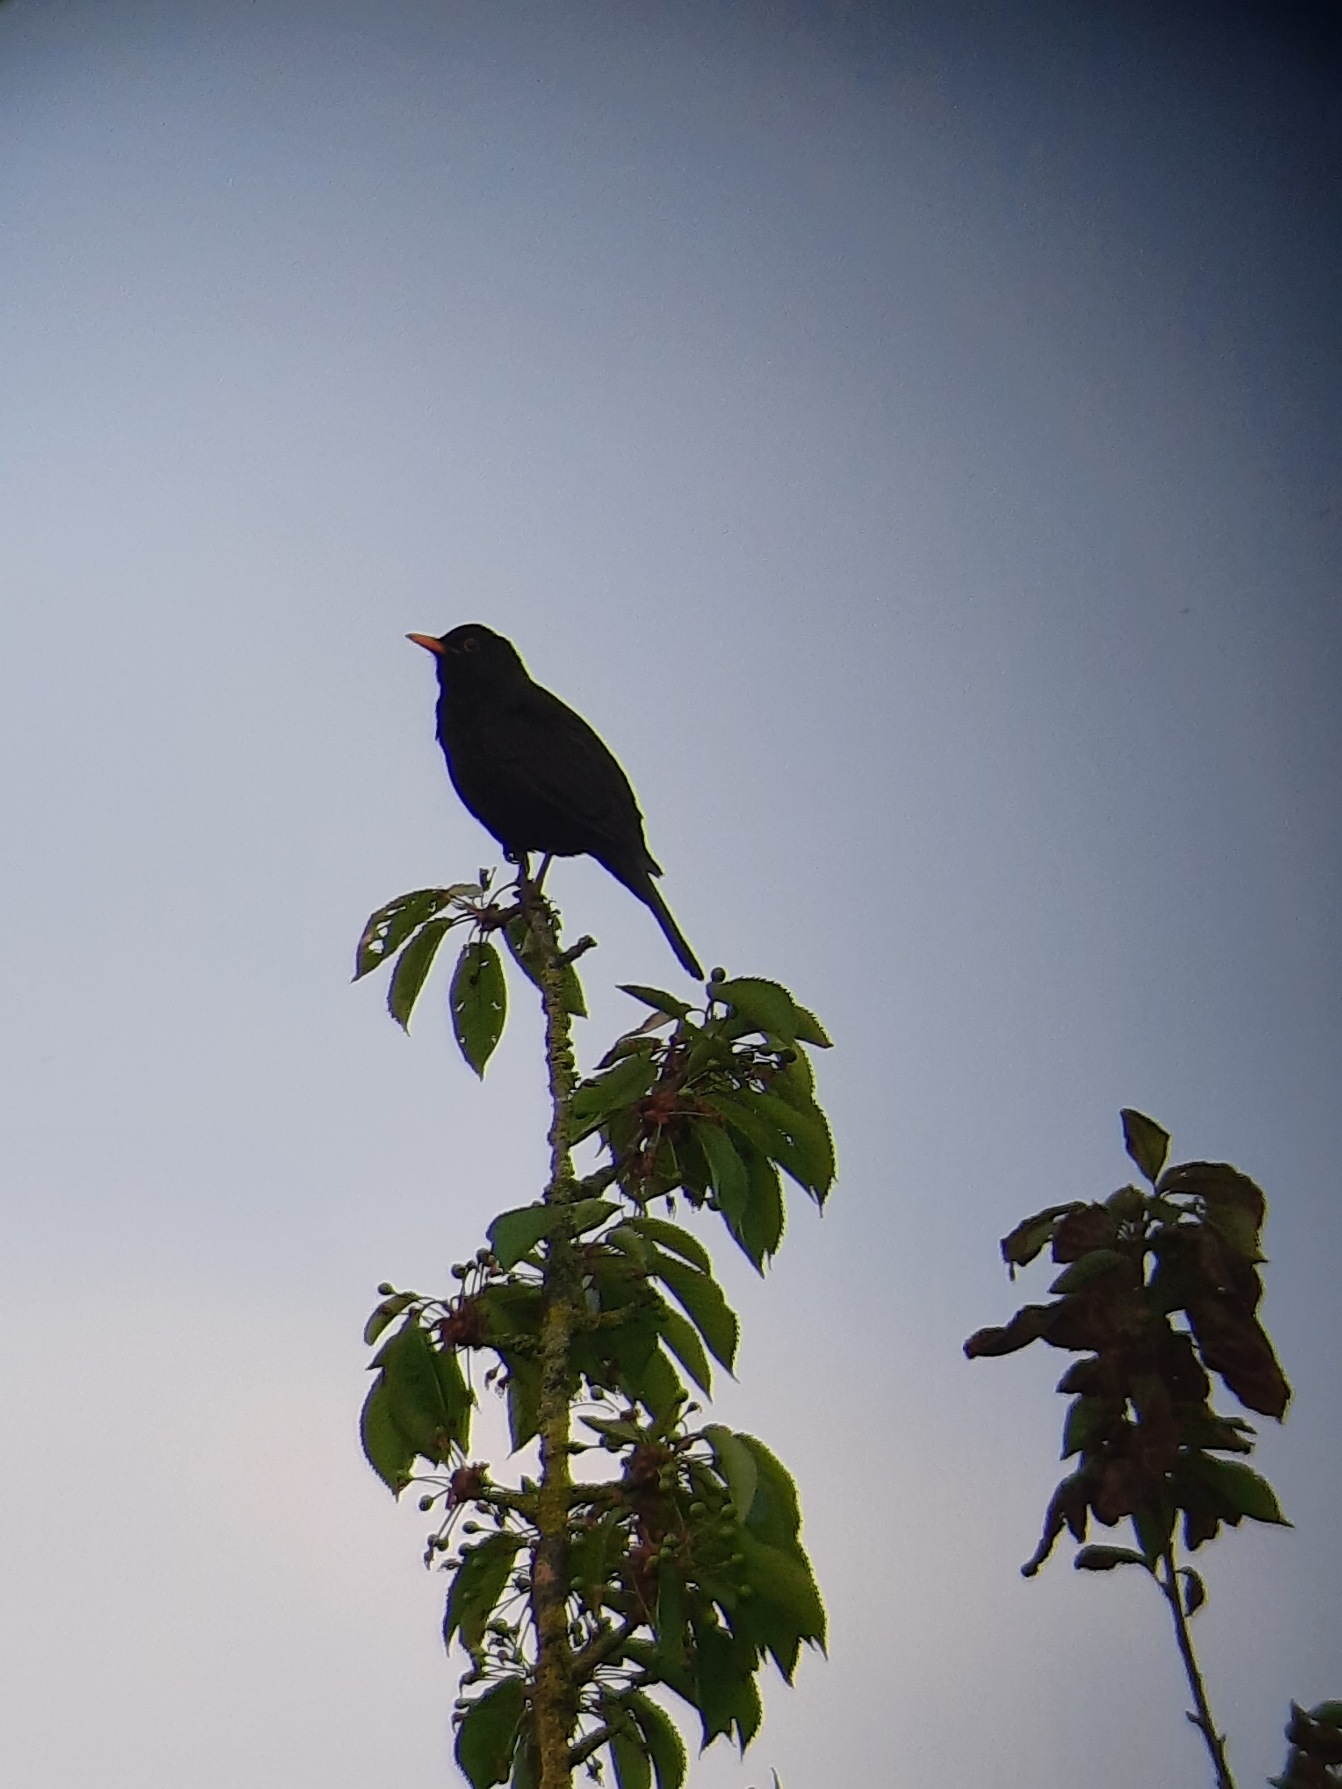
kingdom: Animalia
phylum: Chordata
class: Aves
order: Passeriformes
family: Turdidae
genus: Turdus
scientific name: Turdus merula
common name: Solsort
